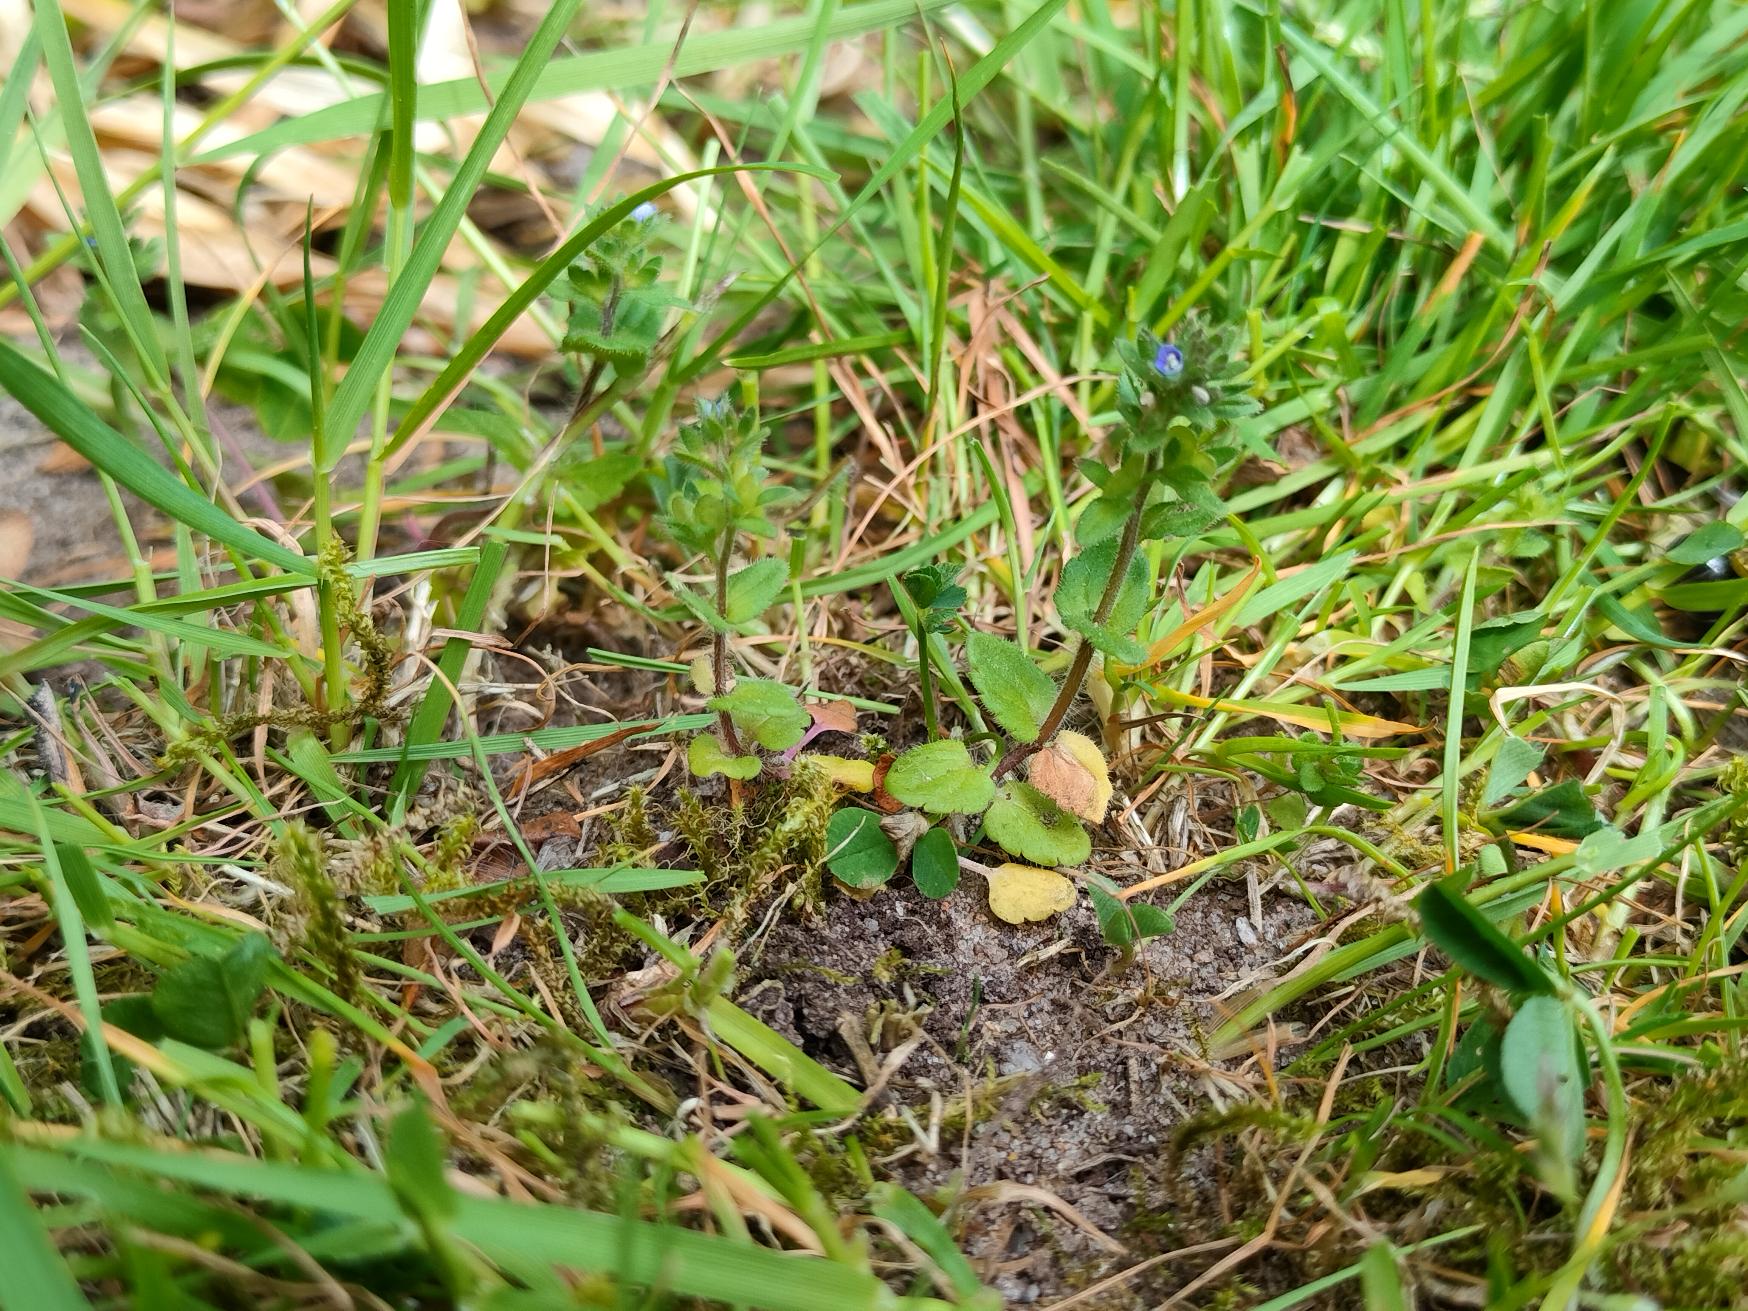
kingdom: Plantae
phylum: Tracheophyta
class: Magnoliopsida
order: Lamiales
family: Plantaginaceae
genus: Veronica
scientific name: Veronica arvensis
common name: Mark-ærenpris
